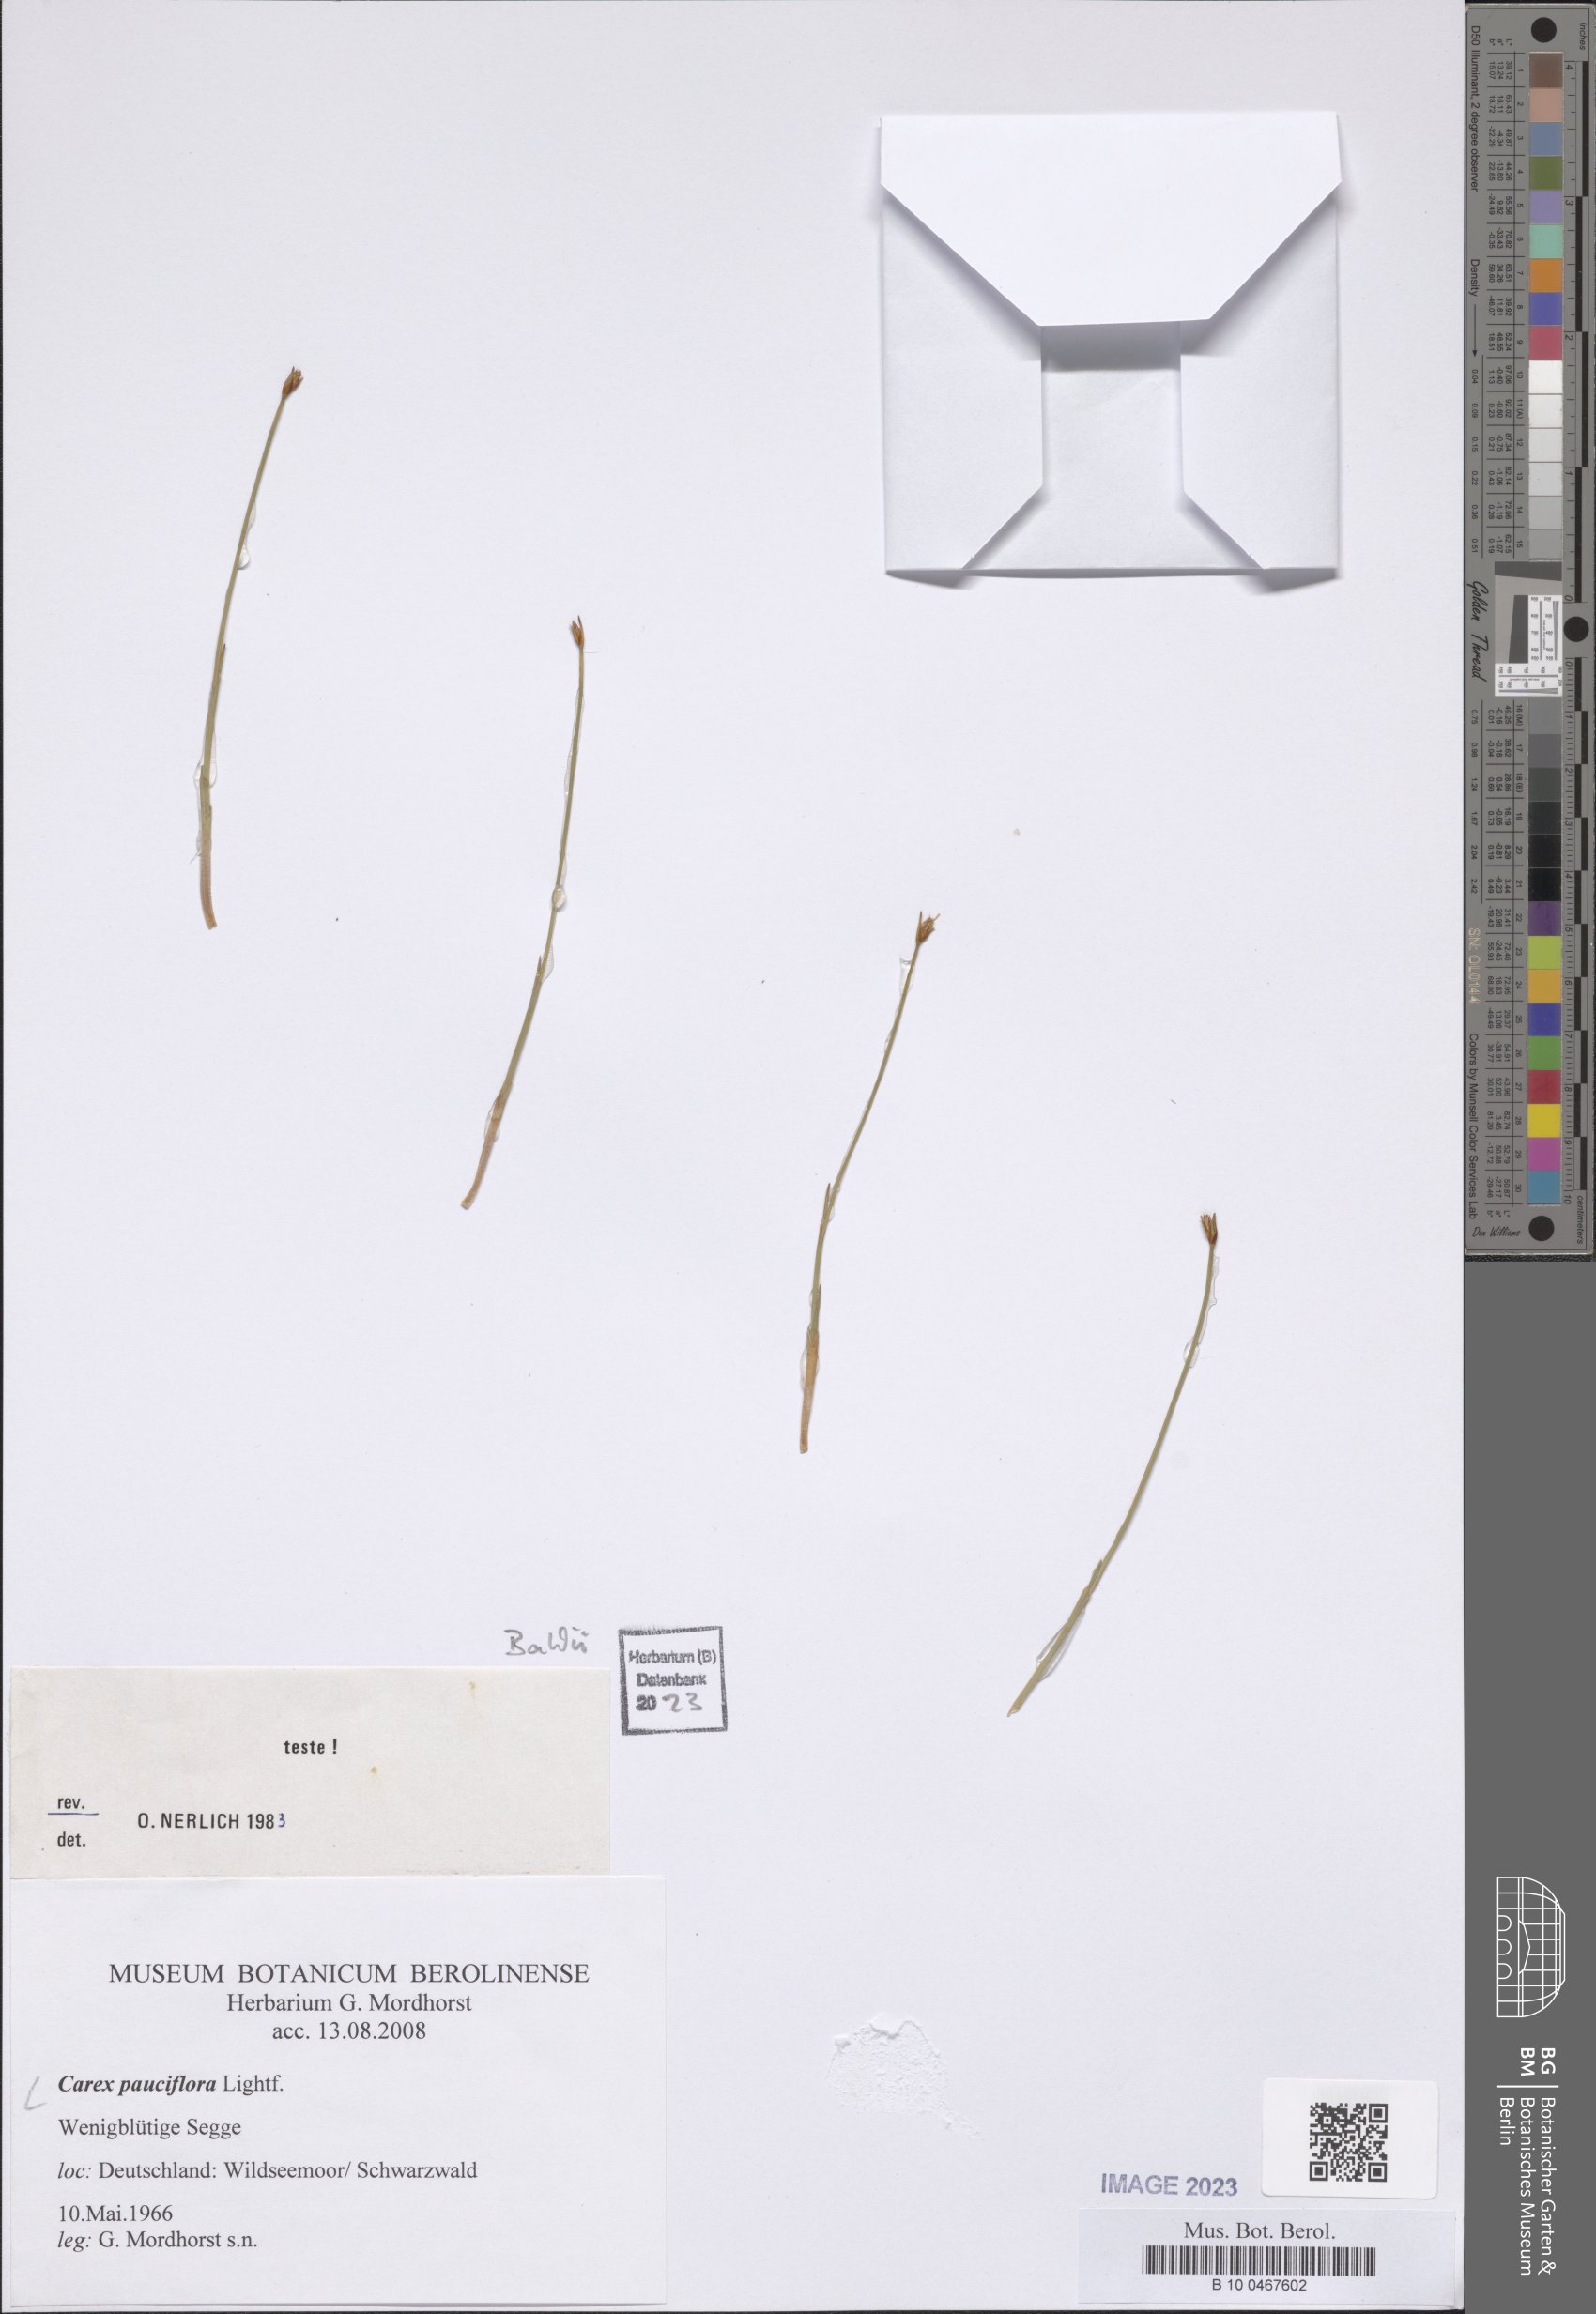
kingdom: Plantae
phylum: Tracheophyta
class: Liliopsida
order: Poales
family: Cyperaceae
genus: Carex
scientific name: Carex pauciflora
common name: Few-flowered sedge
